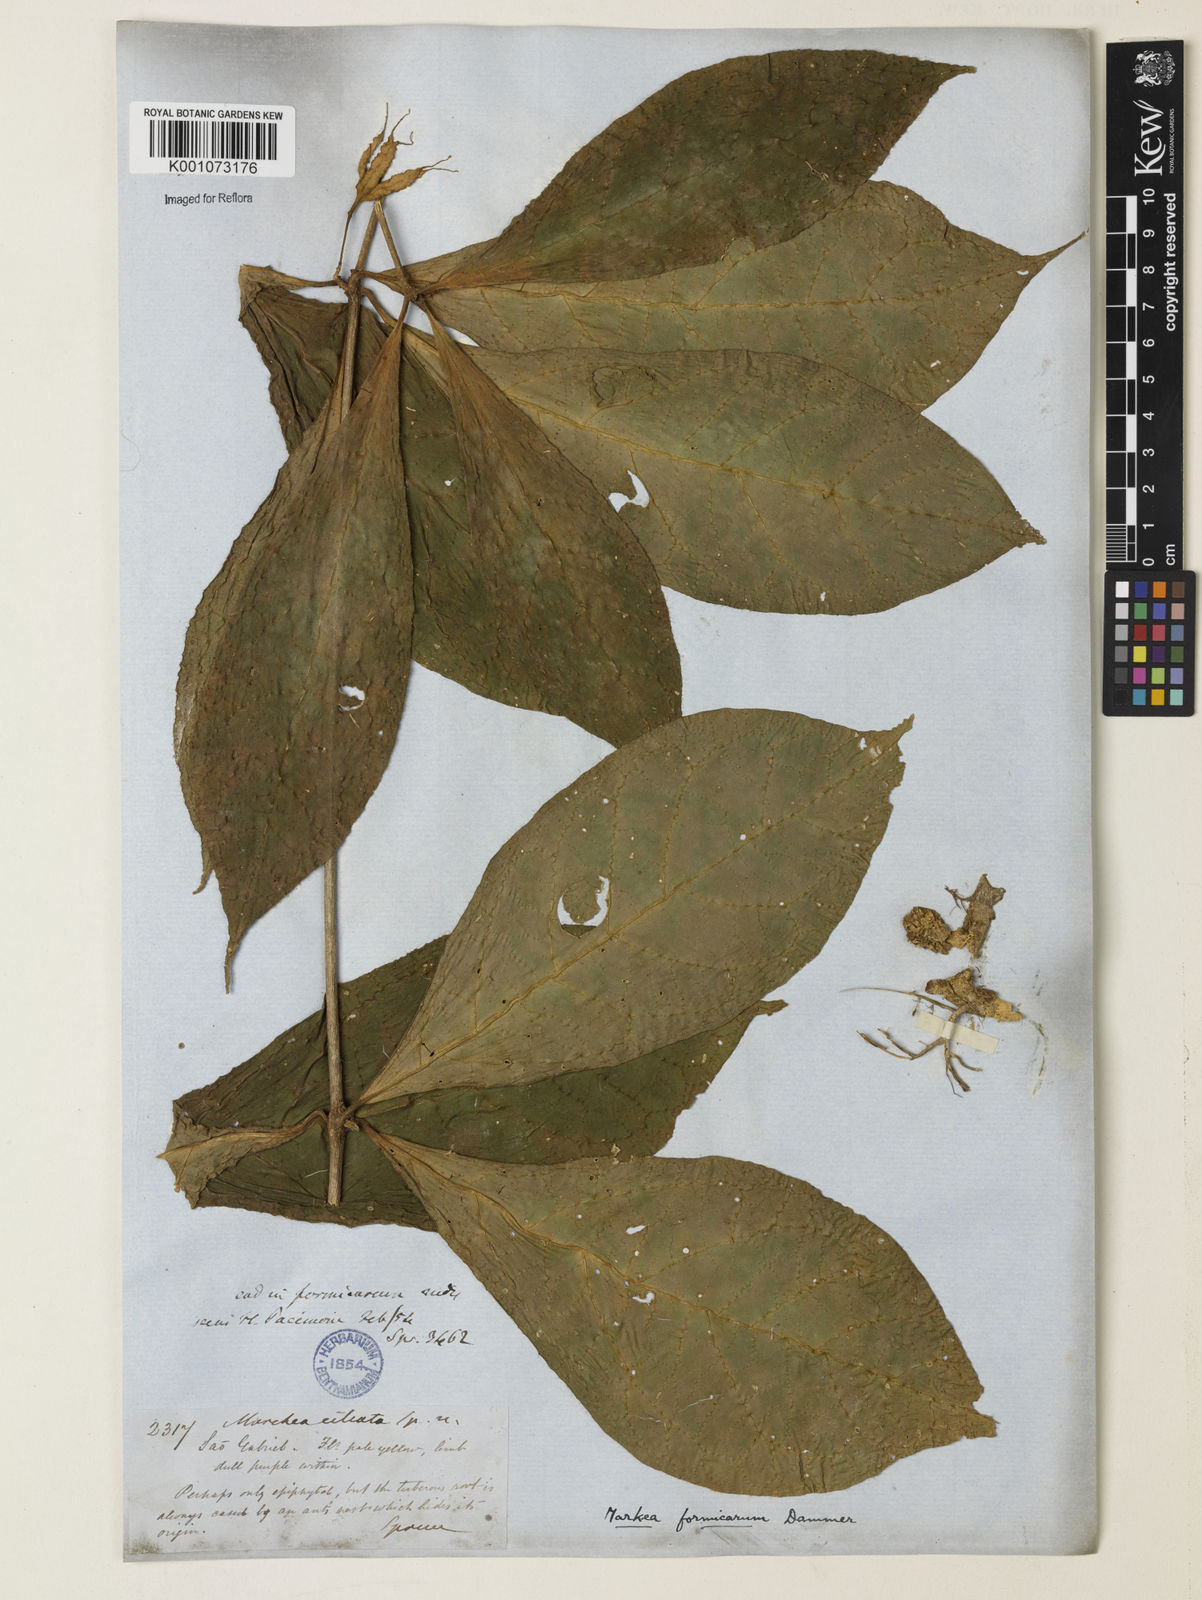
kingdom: Plantae
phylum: Tracheophyta
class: Magnoliopsida
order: Solanales
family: Solanaceae
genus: Markea
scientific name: Markea formicarum
